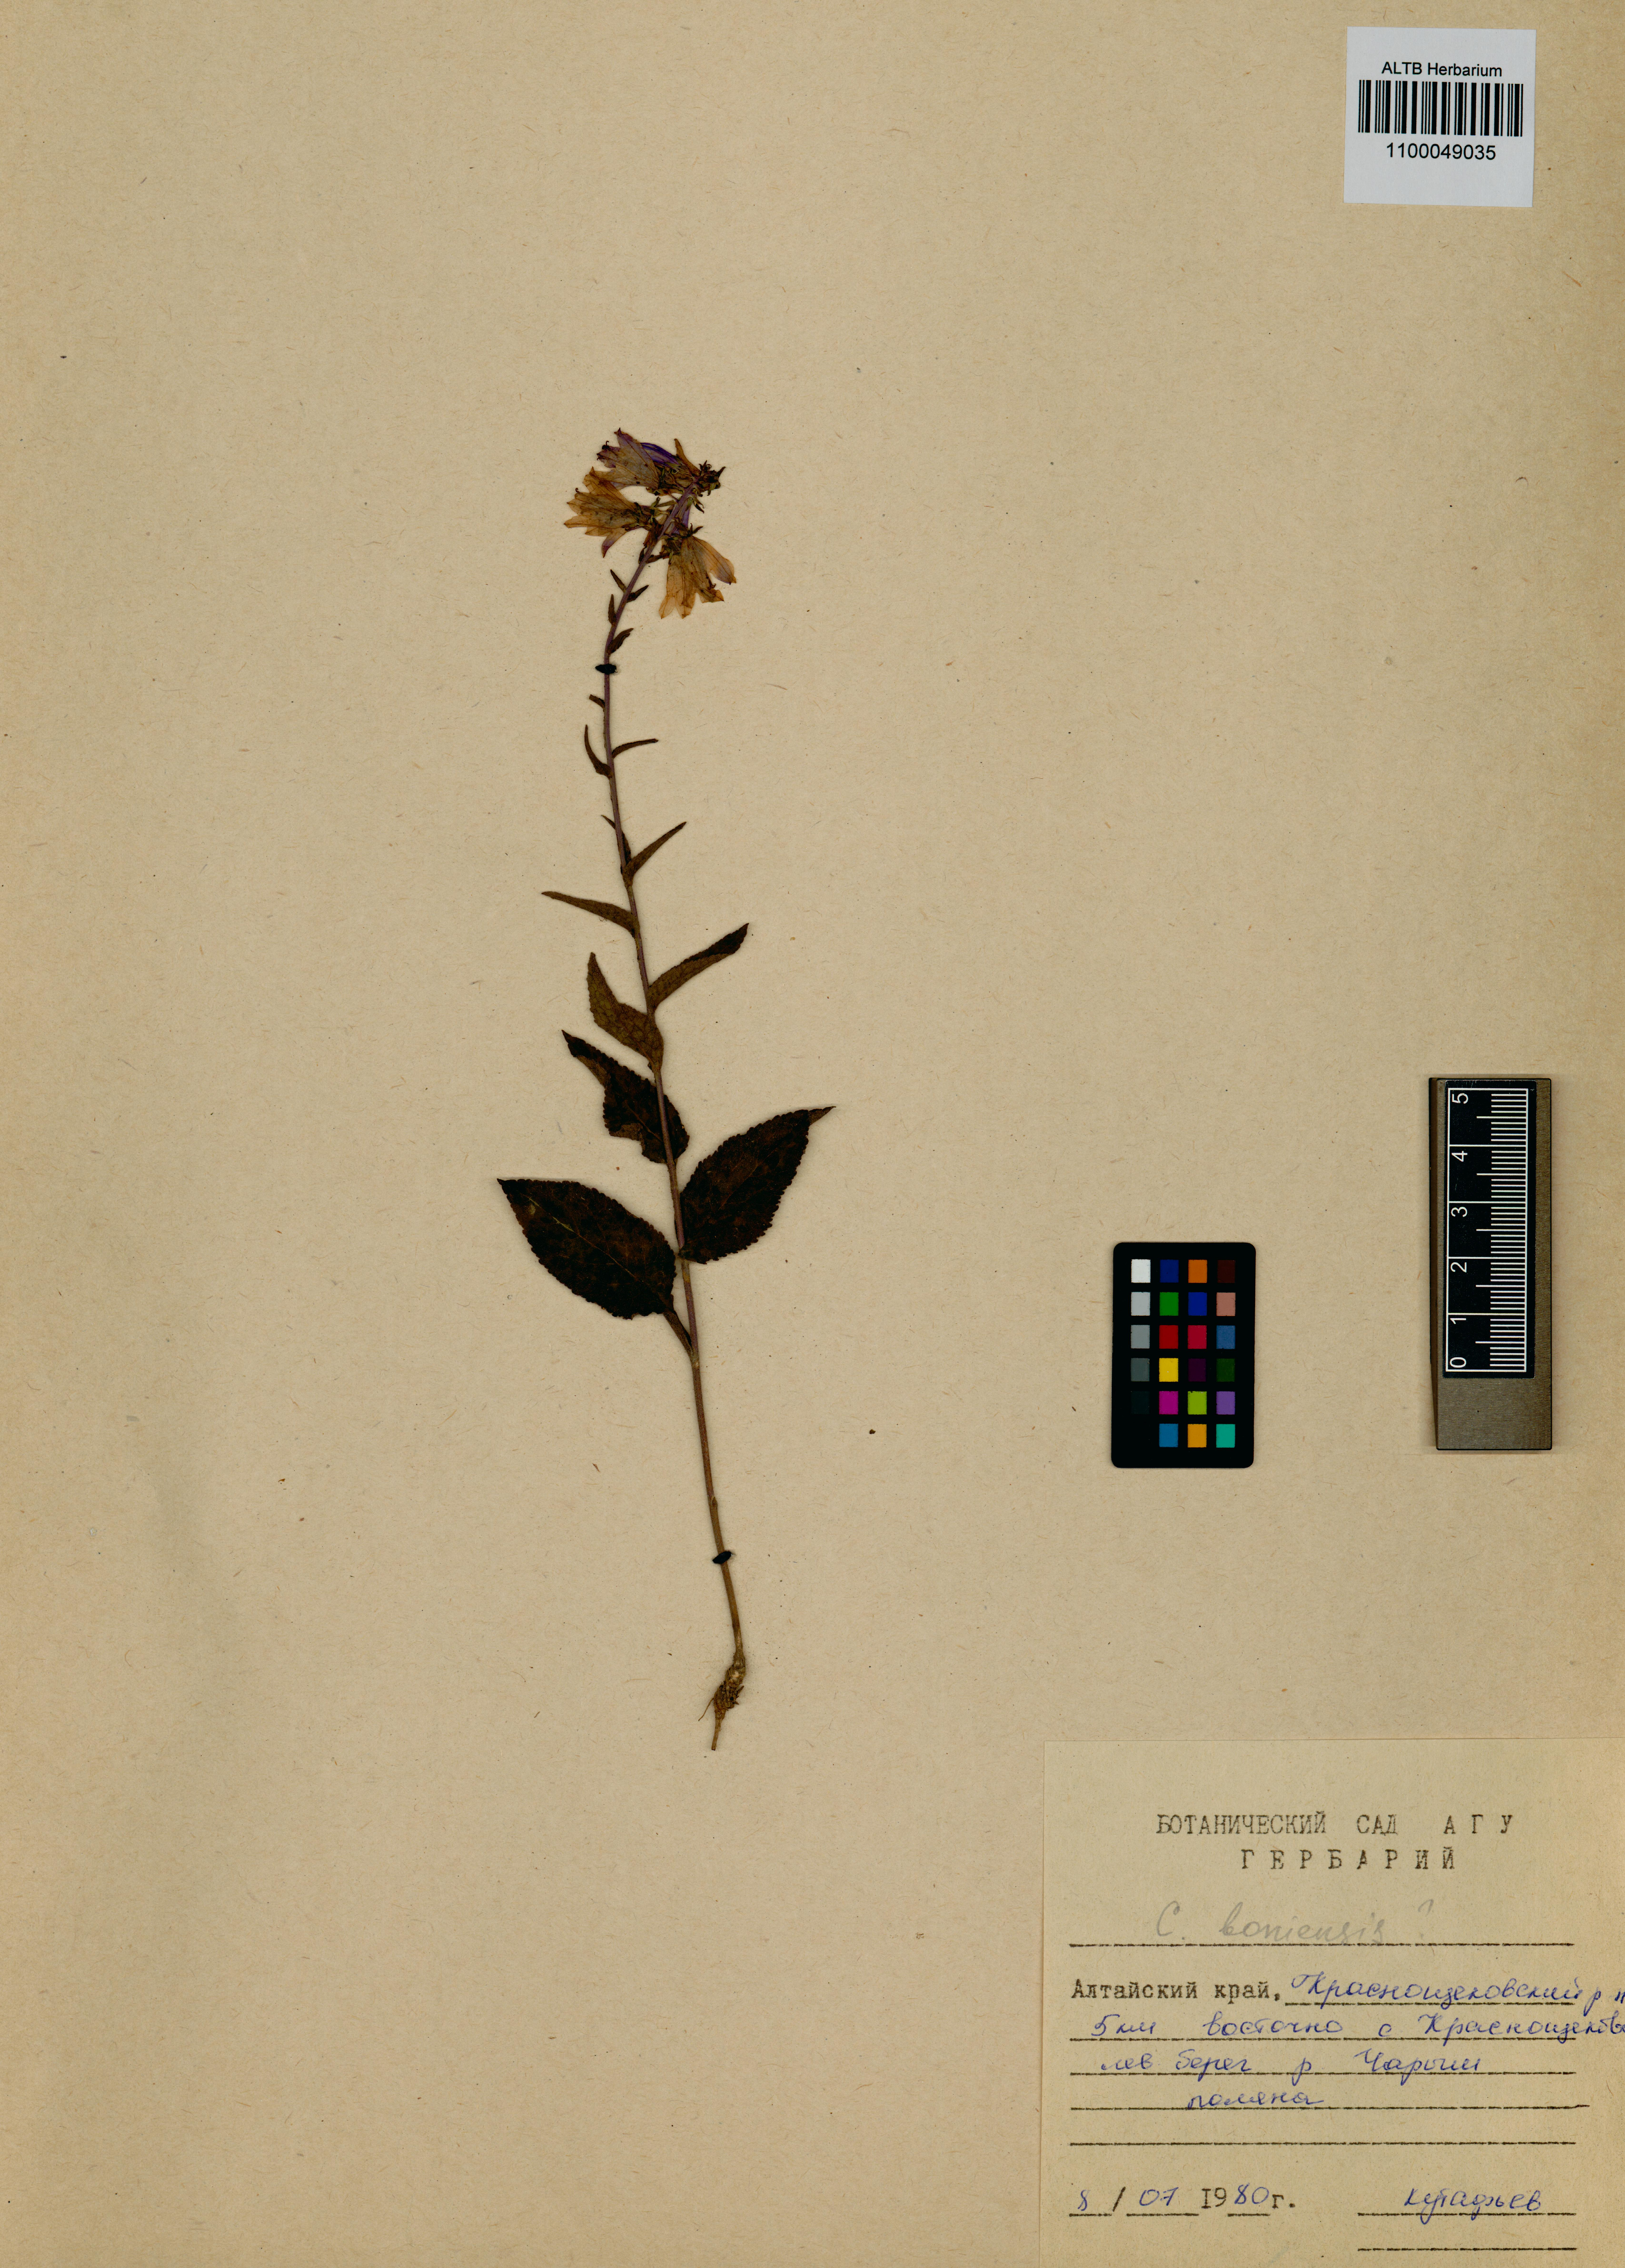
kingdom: Plantae
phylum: Tracheophyta
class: Magnoliopsida
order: Asterales
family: Campanulaceae
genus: Campanula
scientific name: Campanula bononiensis
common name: Pale bellflower
